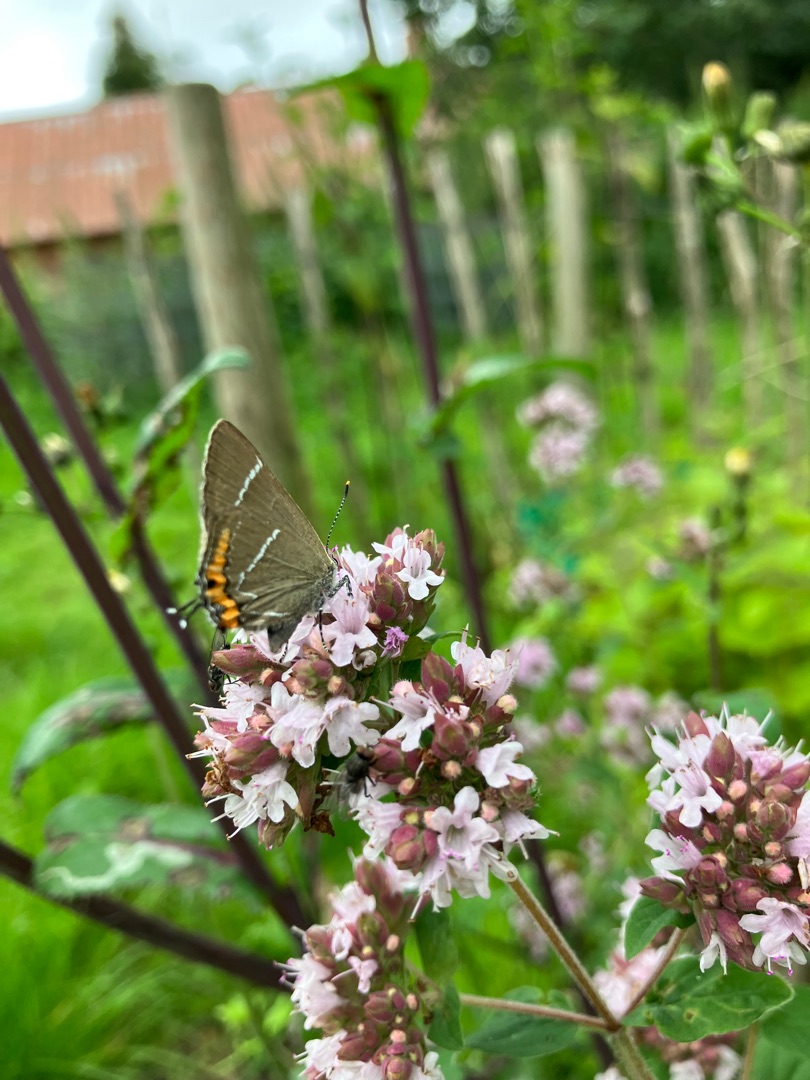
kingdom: Animalia
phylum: Arthropoda
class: Insecta
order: Lepidoptera
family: Lycaenidae
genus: Satyrium
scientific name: Satyrium w-album
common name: Det hvide W
